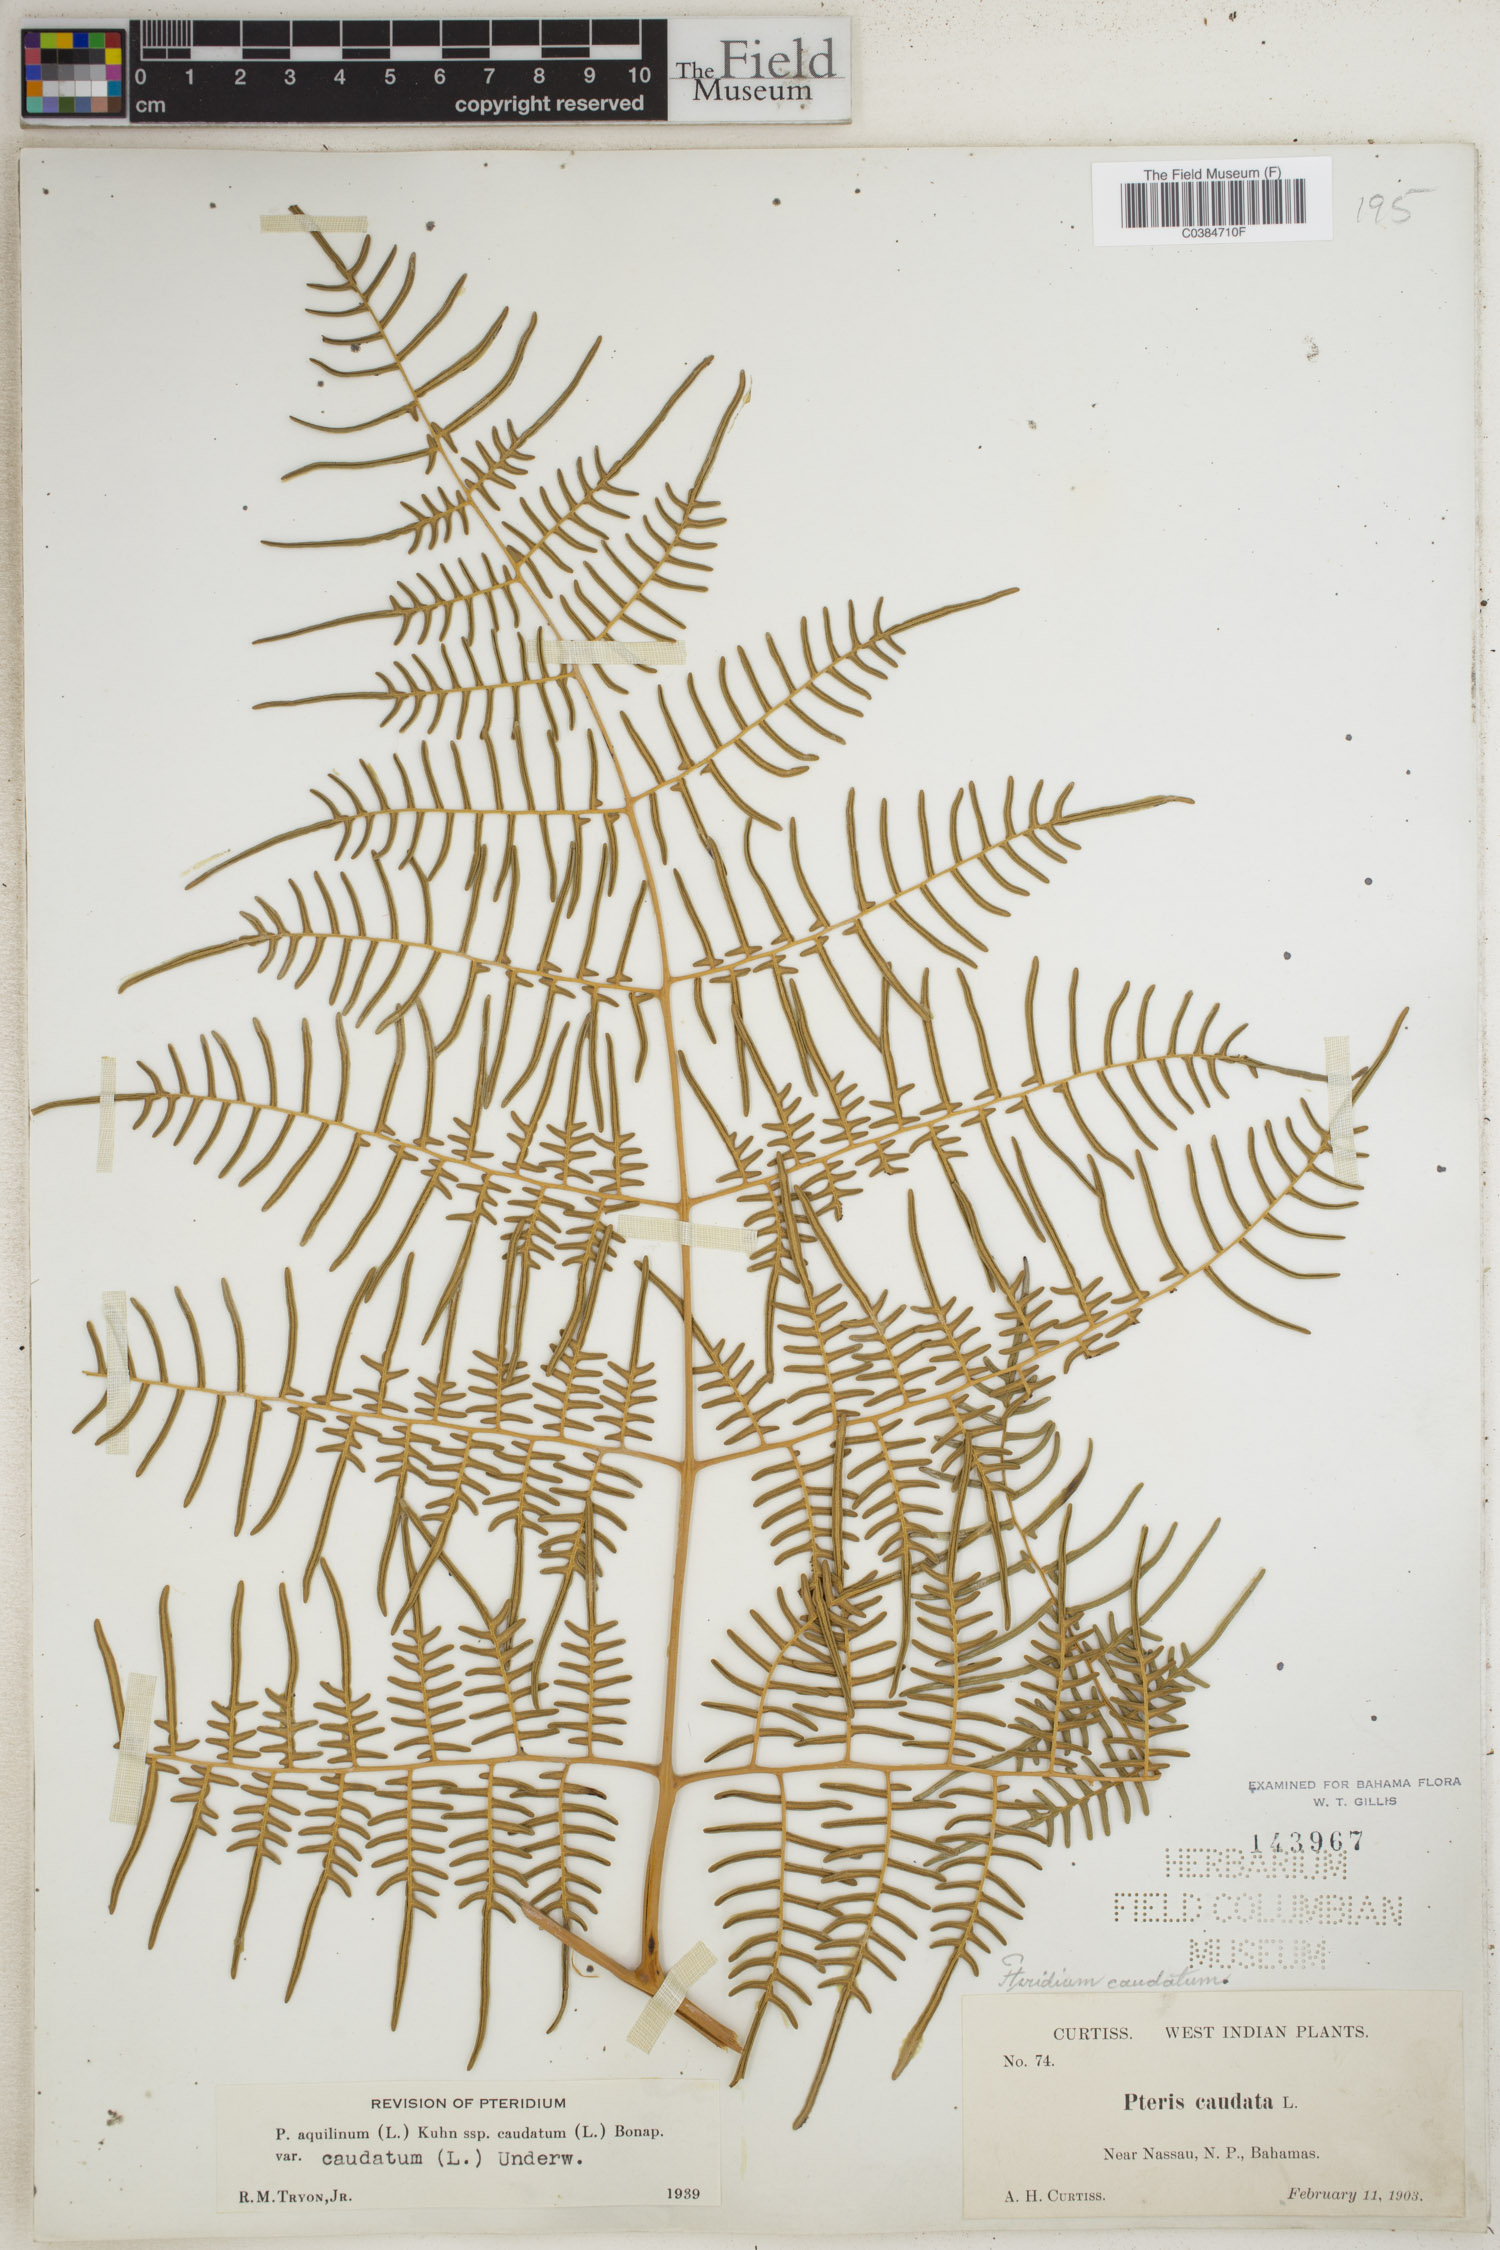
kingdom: Plantae
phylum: Tracheophyta
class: Polypodiopsida
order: Polypodiales
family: Dennstaedtiaceae
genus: Pteridium
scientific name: Pteridium caudatum
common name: Southern bracken fern
